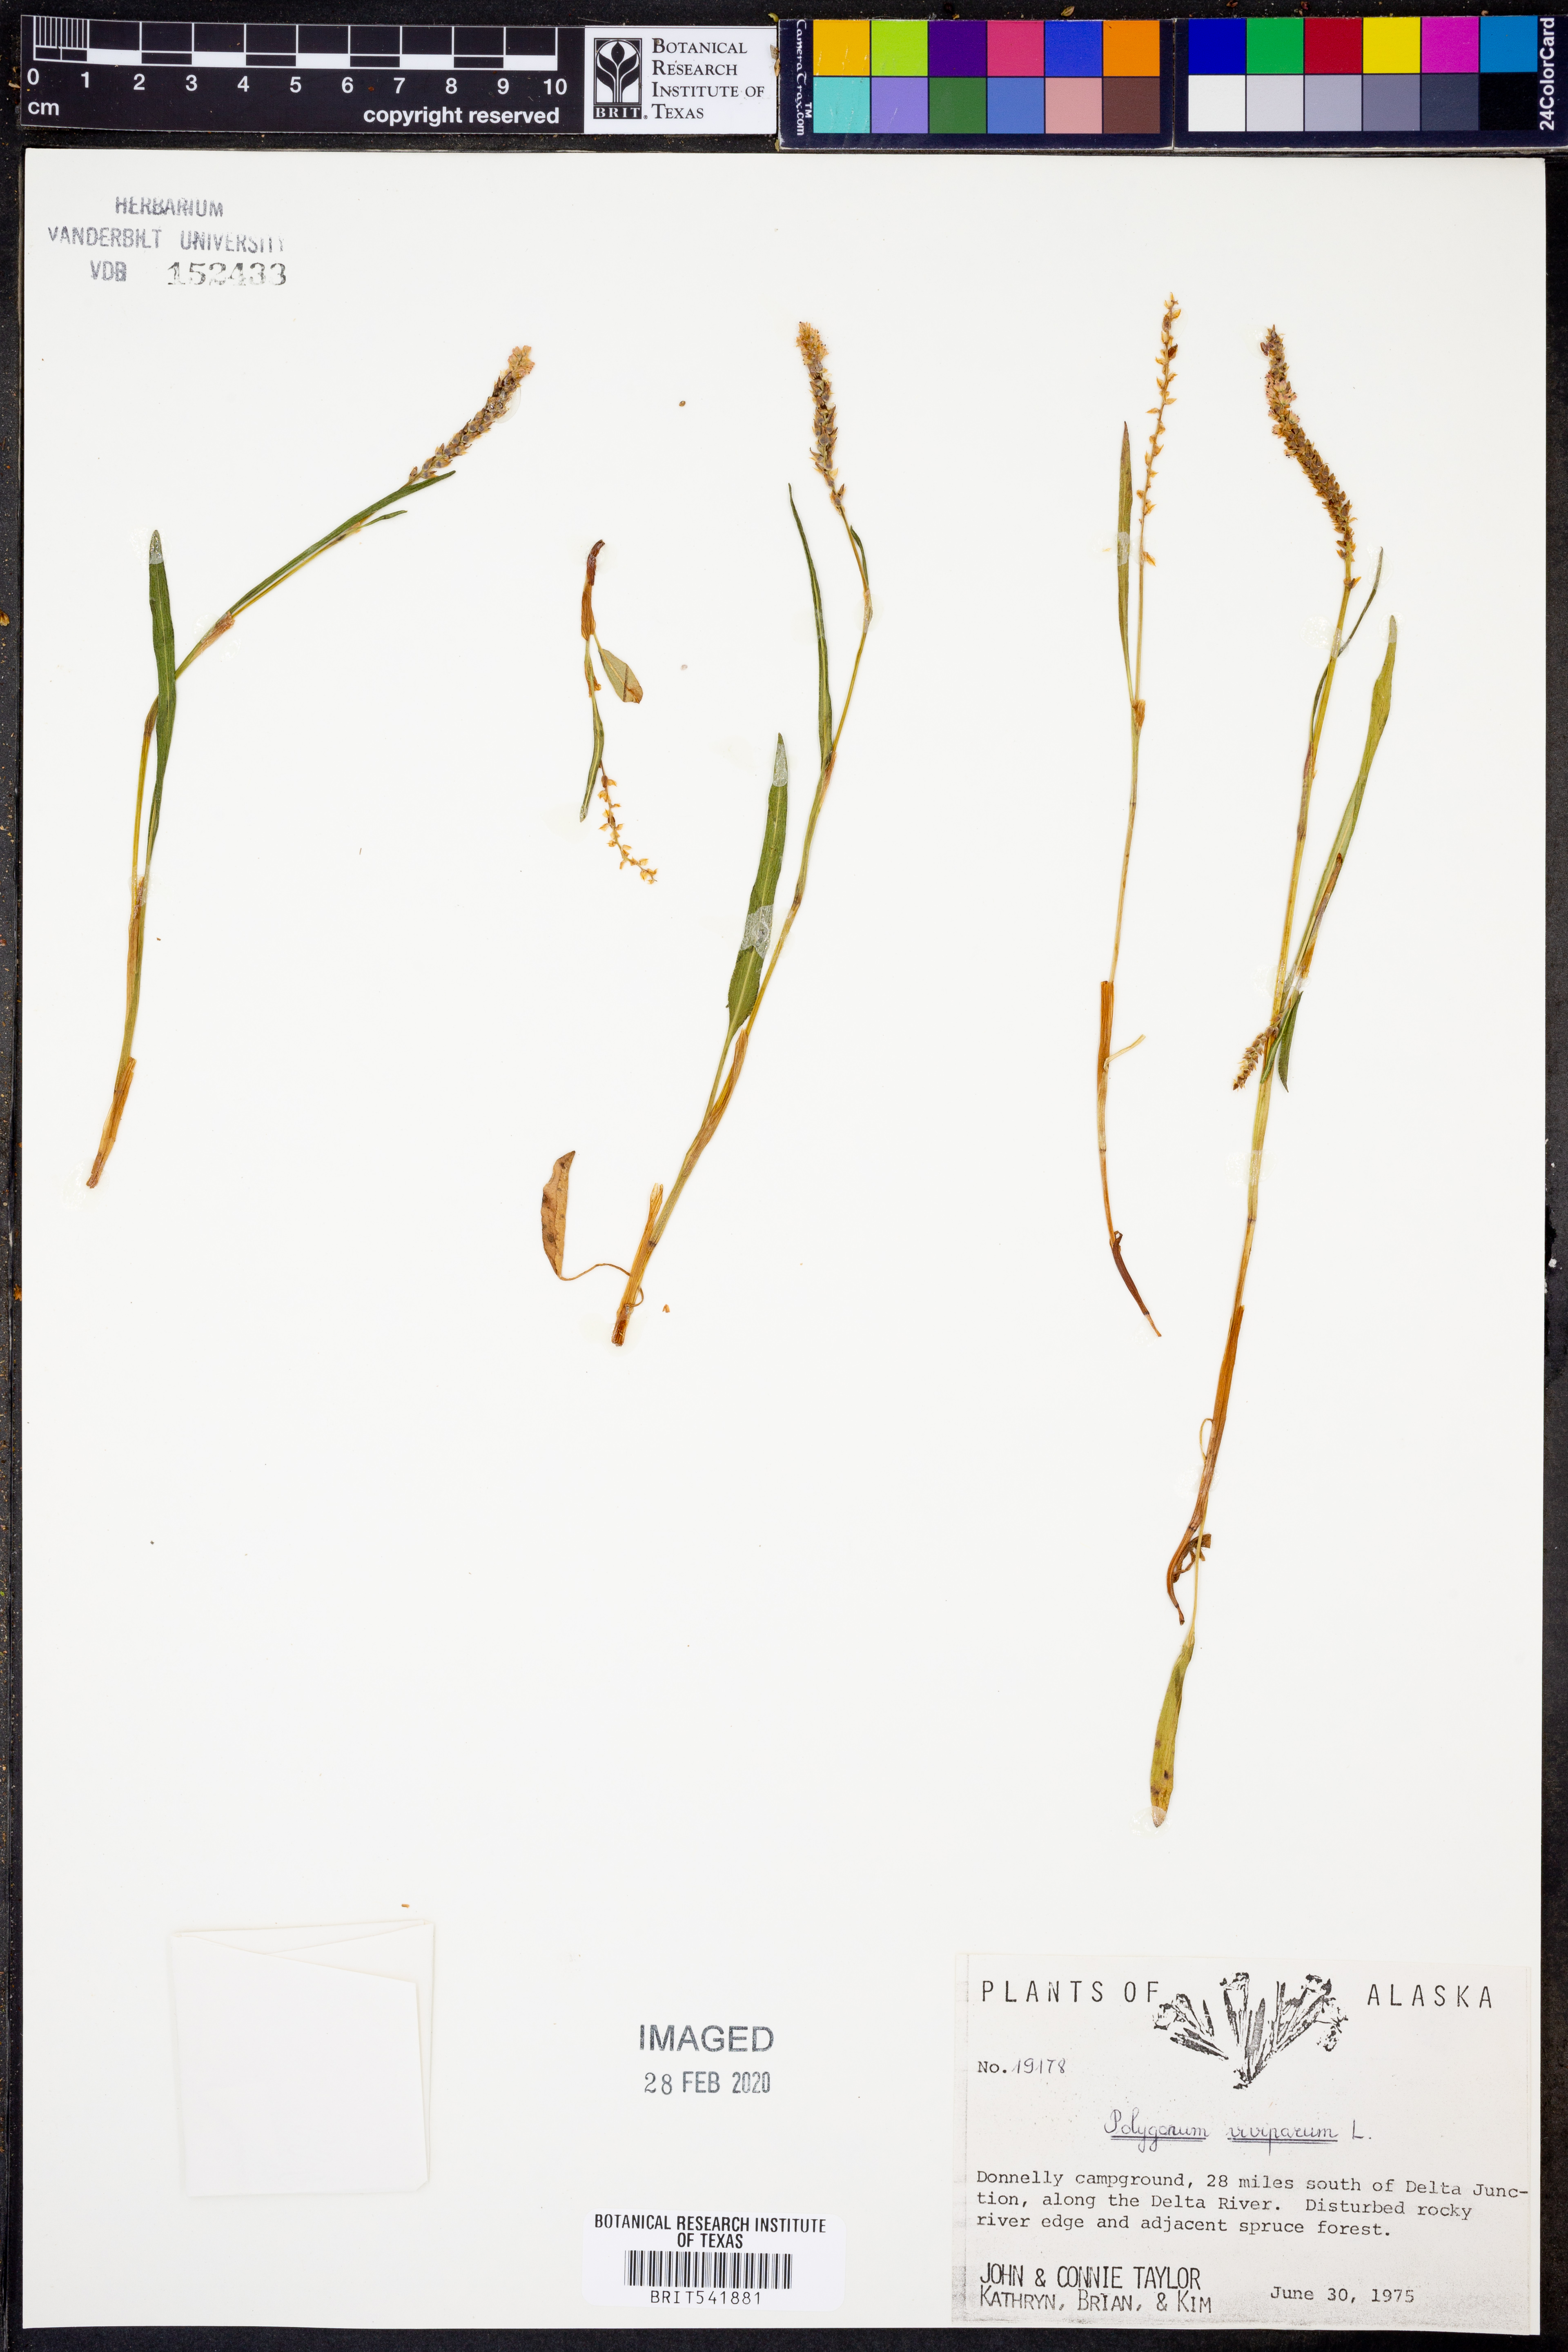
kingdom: Plantae
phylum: Tracheophyta
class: Magnoliopsida
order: Caryophyllales
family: Polygonaceae
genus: Bistorta
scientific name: Bistorta vivipara
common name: Alpine bistort
